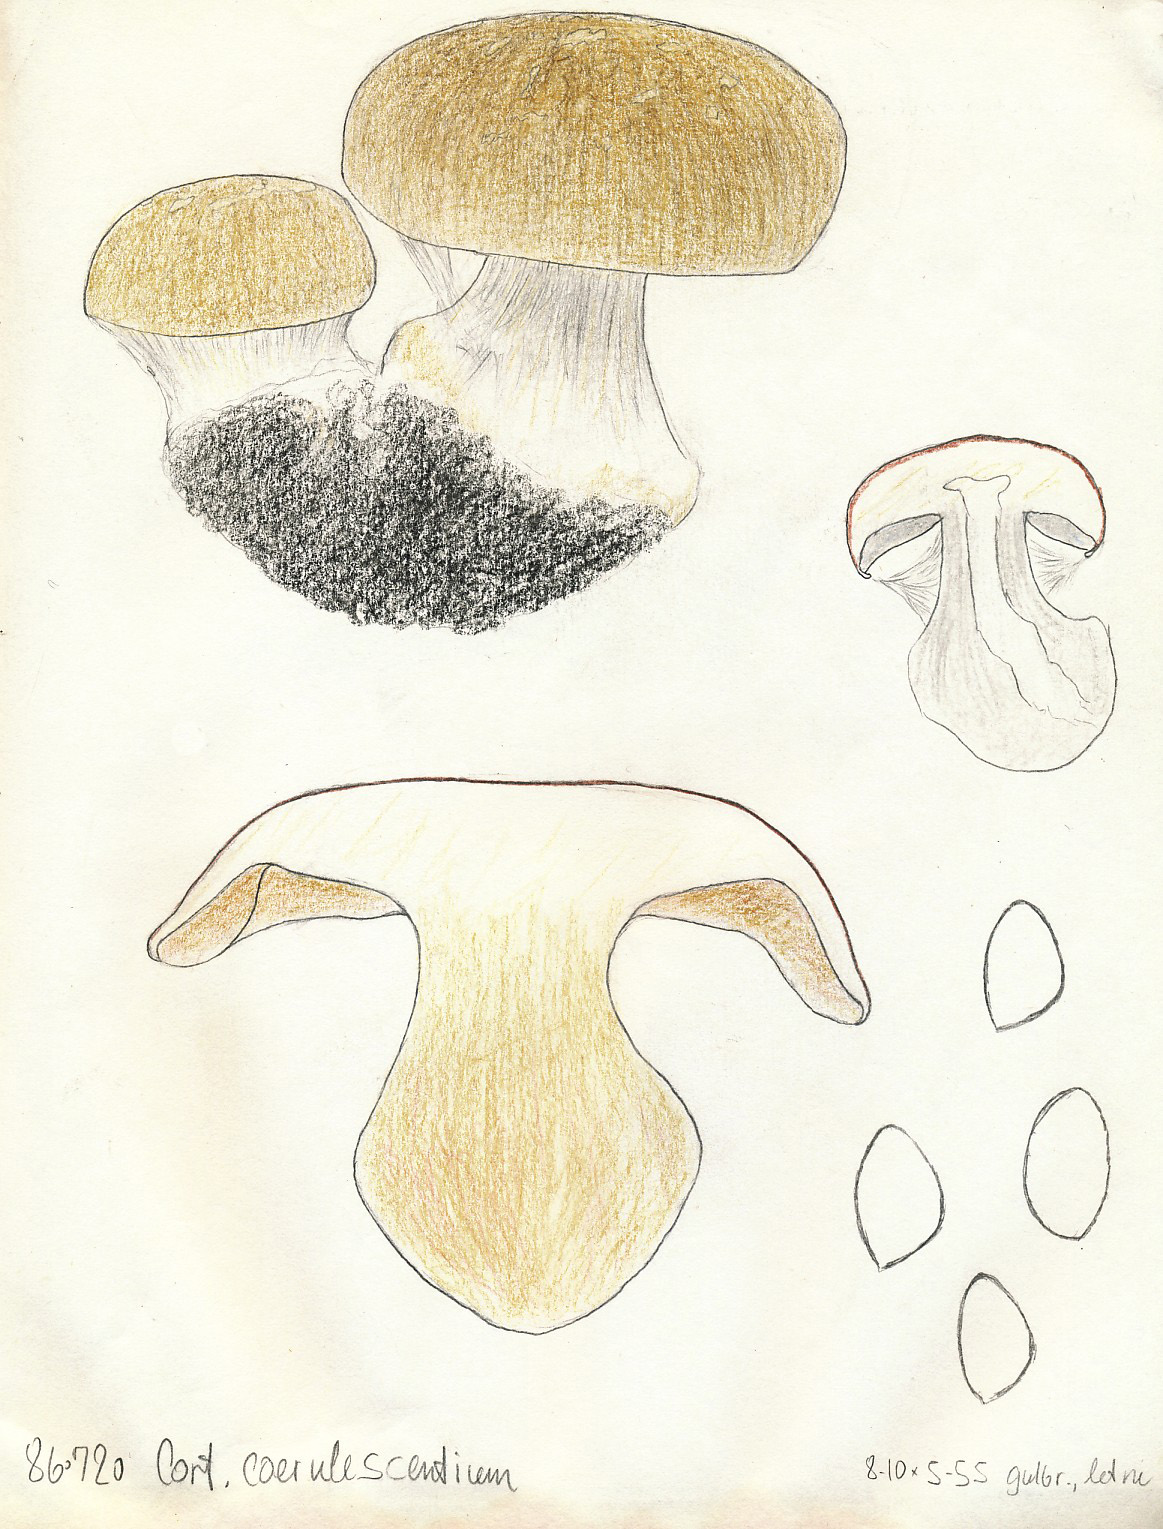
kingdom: Fungi
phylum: Basidiomycota
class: Agaricomycetes
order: Agaricales
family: Cortinariaceae
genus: Cortinarius
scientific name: Cortinarius foetens
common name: stribet slørhat
